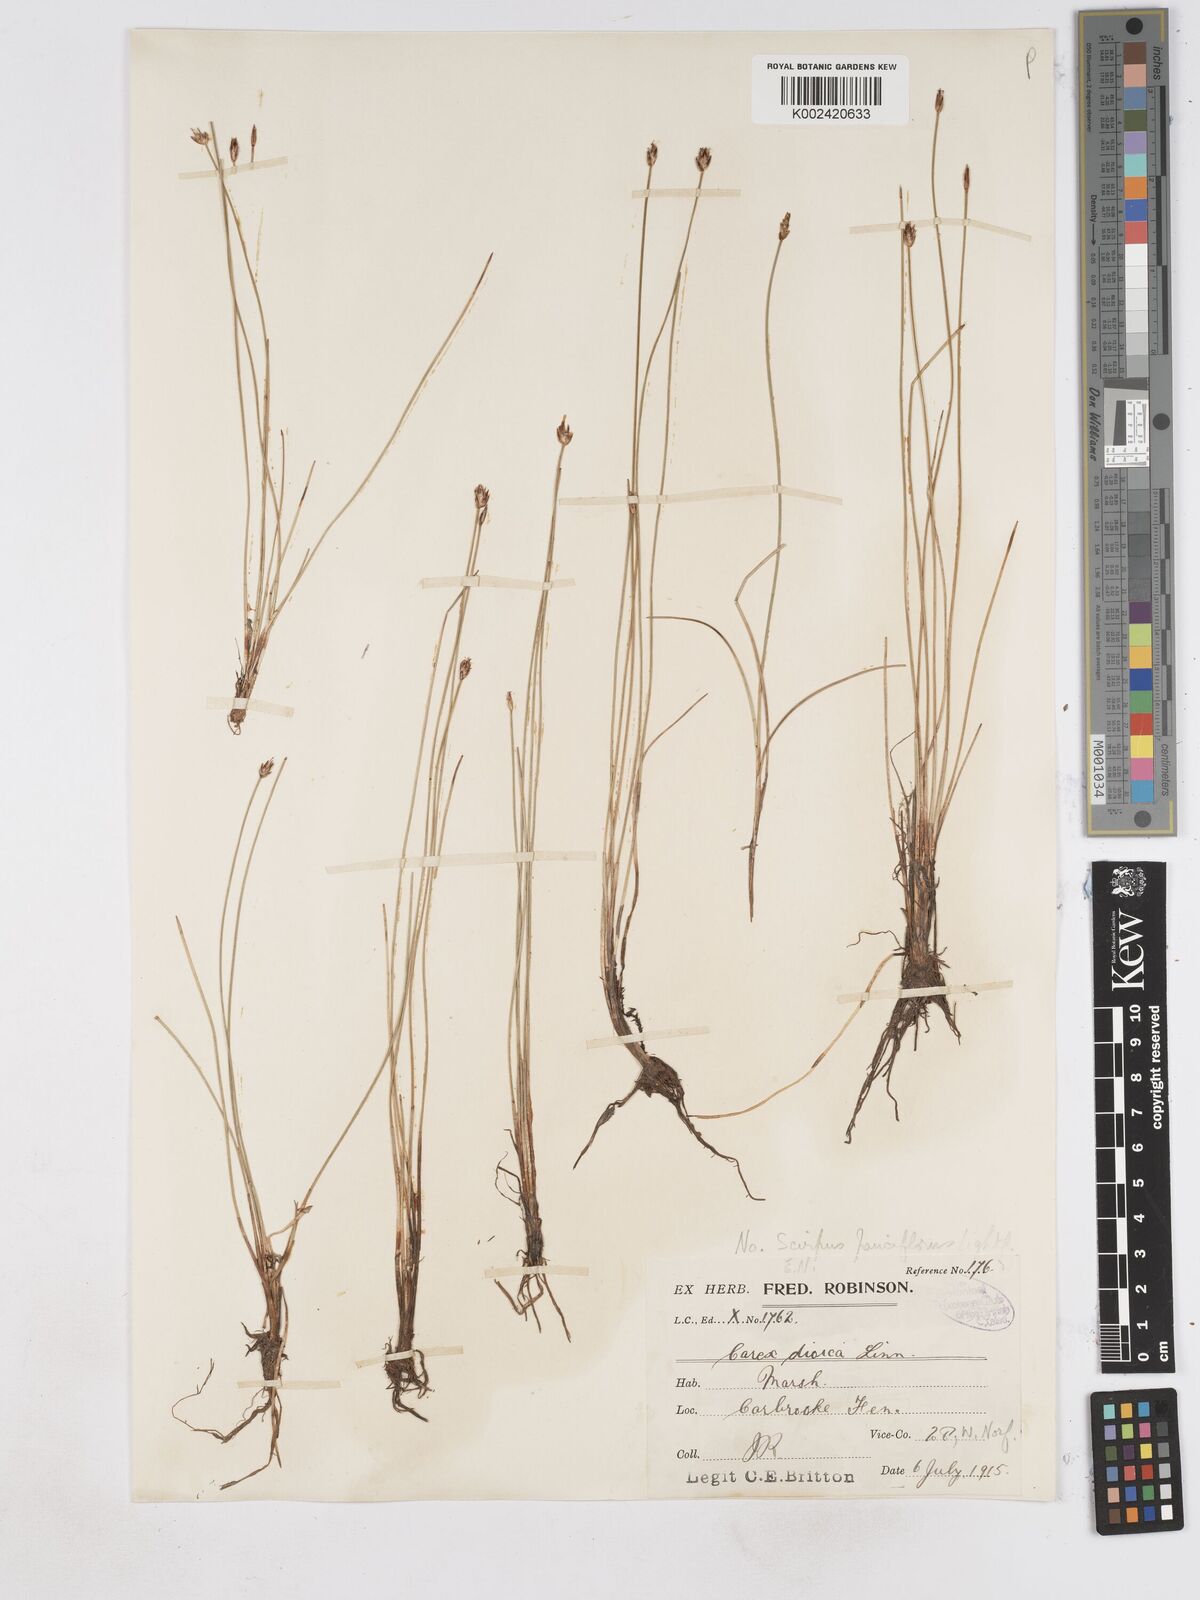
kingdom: Plantae
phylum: Tracheophyta
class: Liliopsida
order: Poales
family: Cyperaceae
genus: Eleocharis
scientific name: Eleocharis quinqueflora
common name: Few-flowered spike-rush
